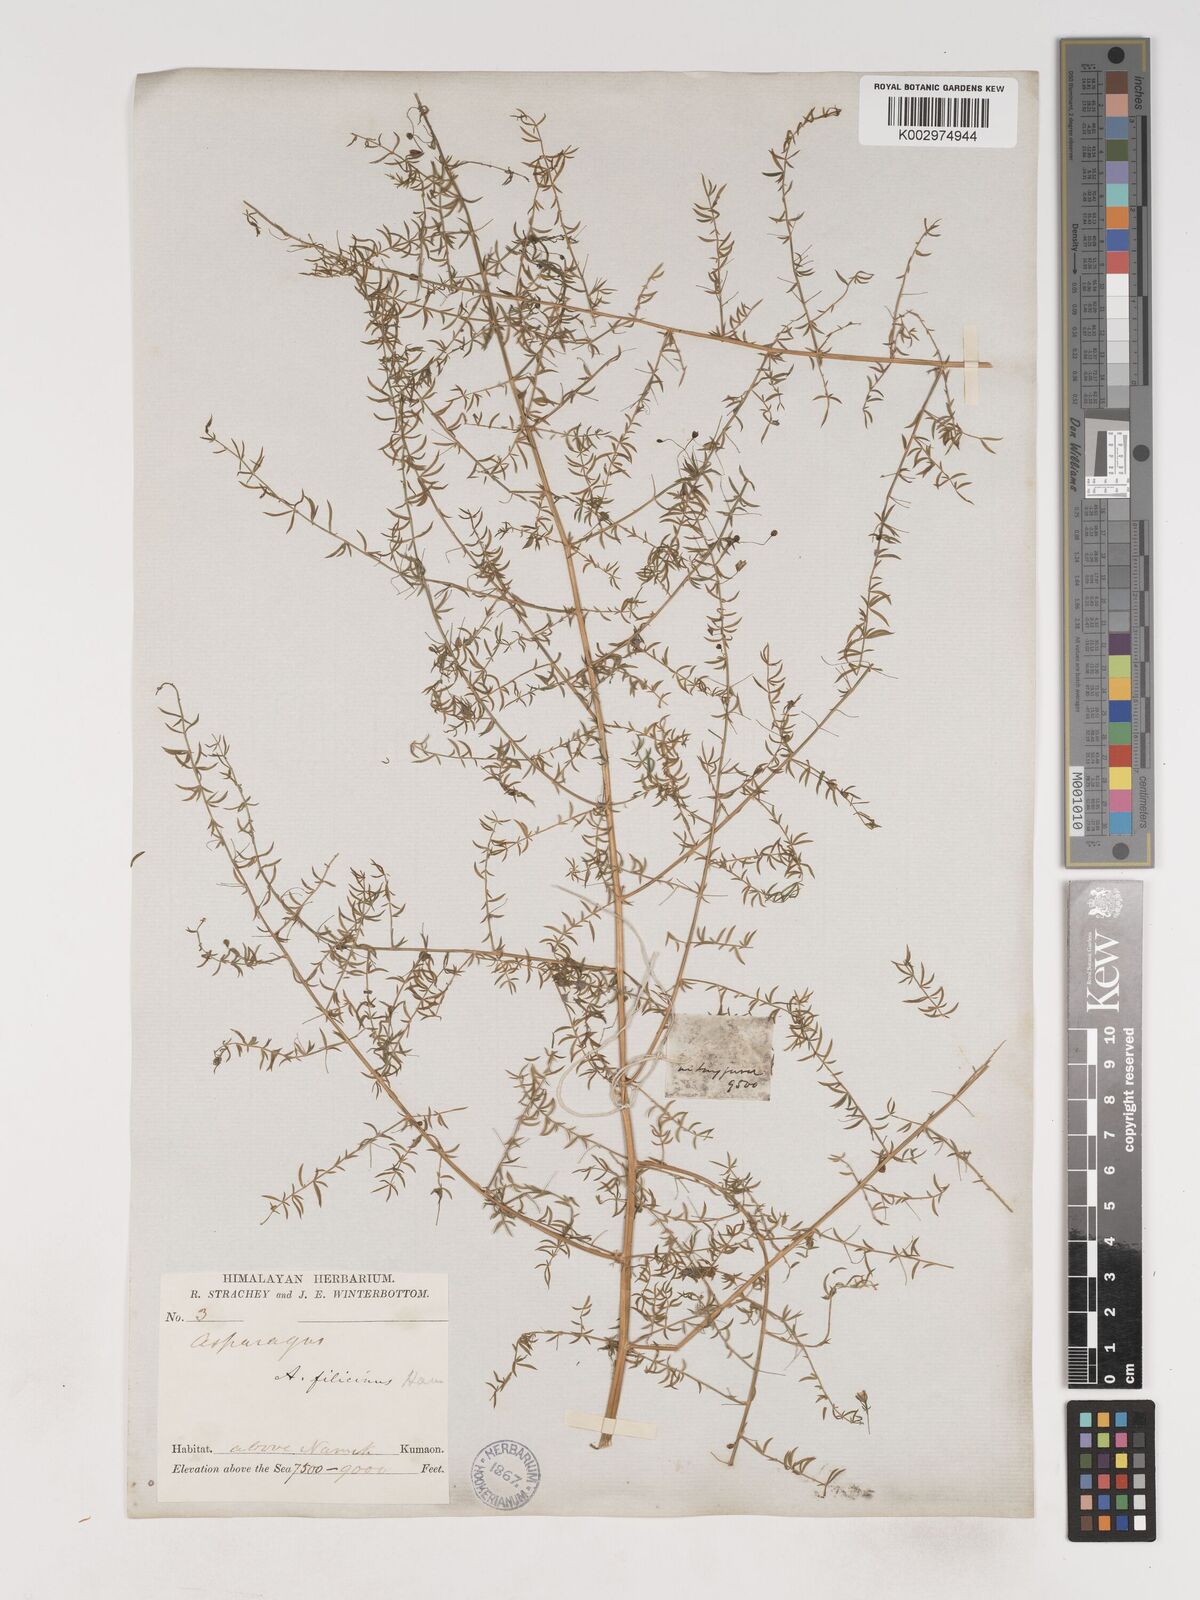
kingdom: Plantae
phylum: Tracheophyta
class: Liliopsida
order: Asparagales
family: Asparagaceae
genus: Asparagus
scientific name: Asparagus filicinus
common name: Fern asparagus
